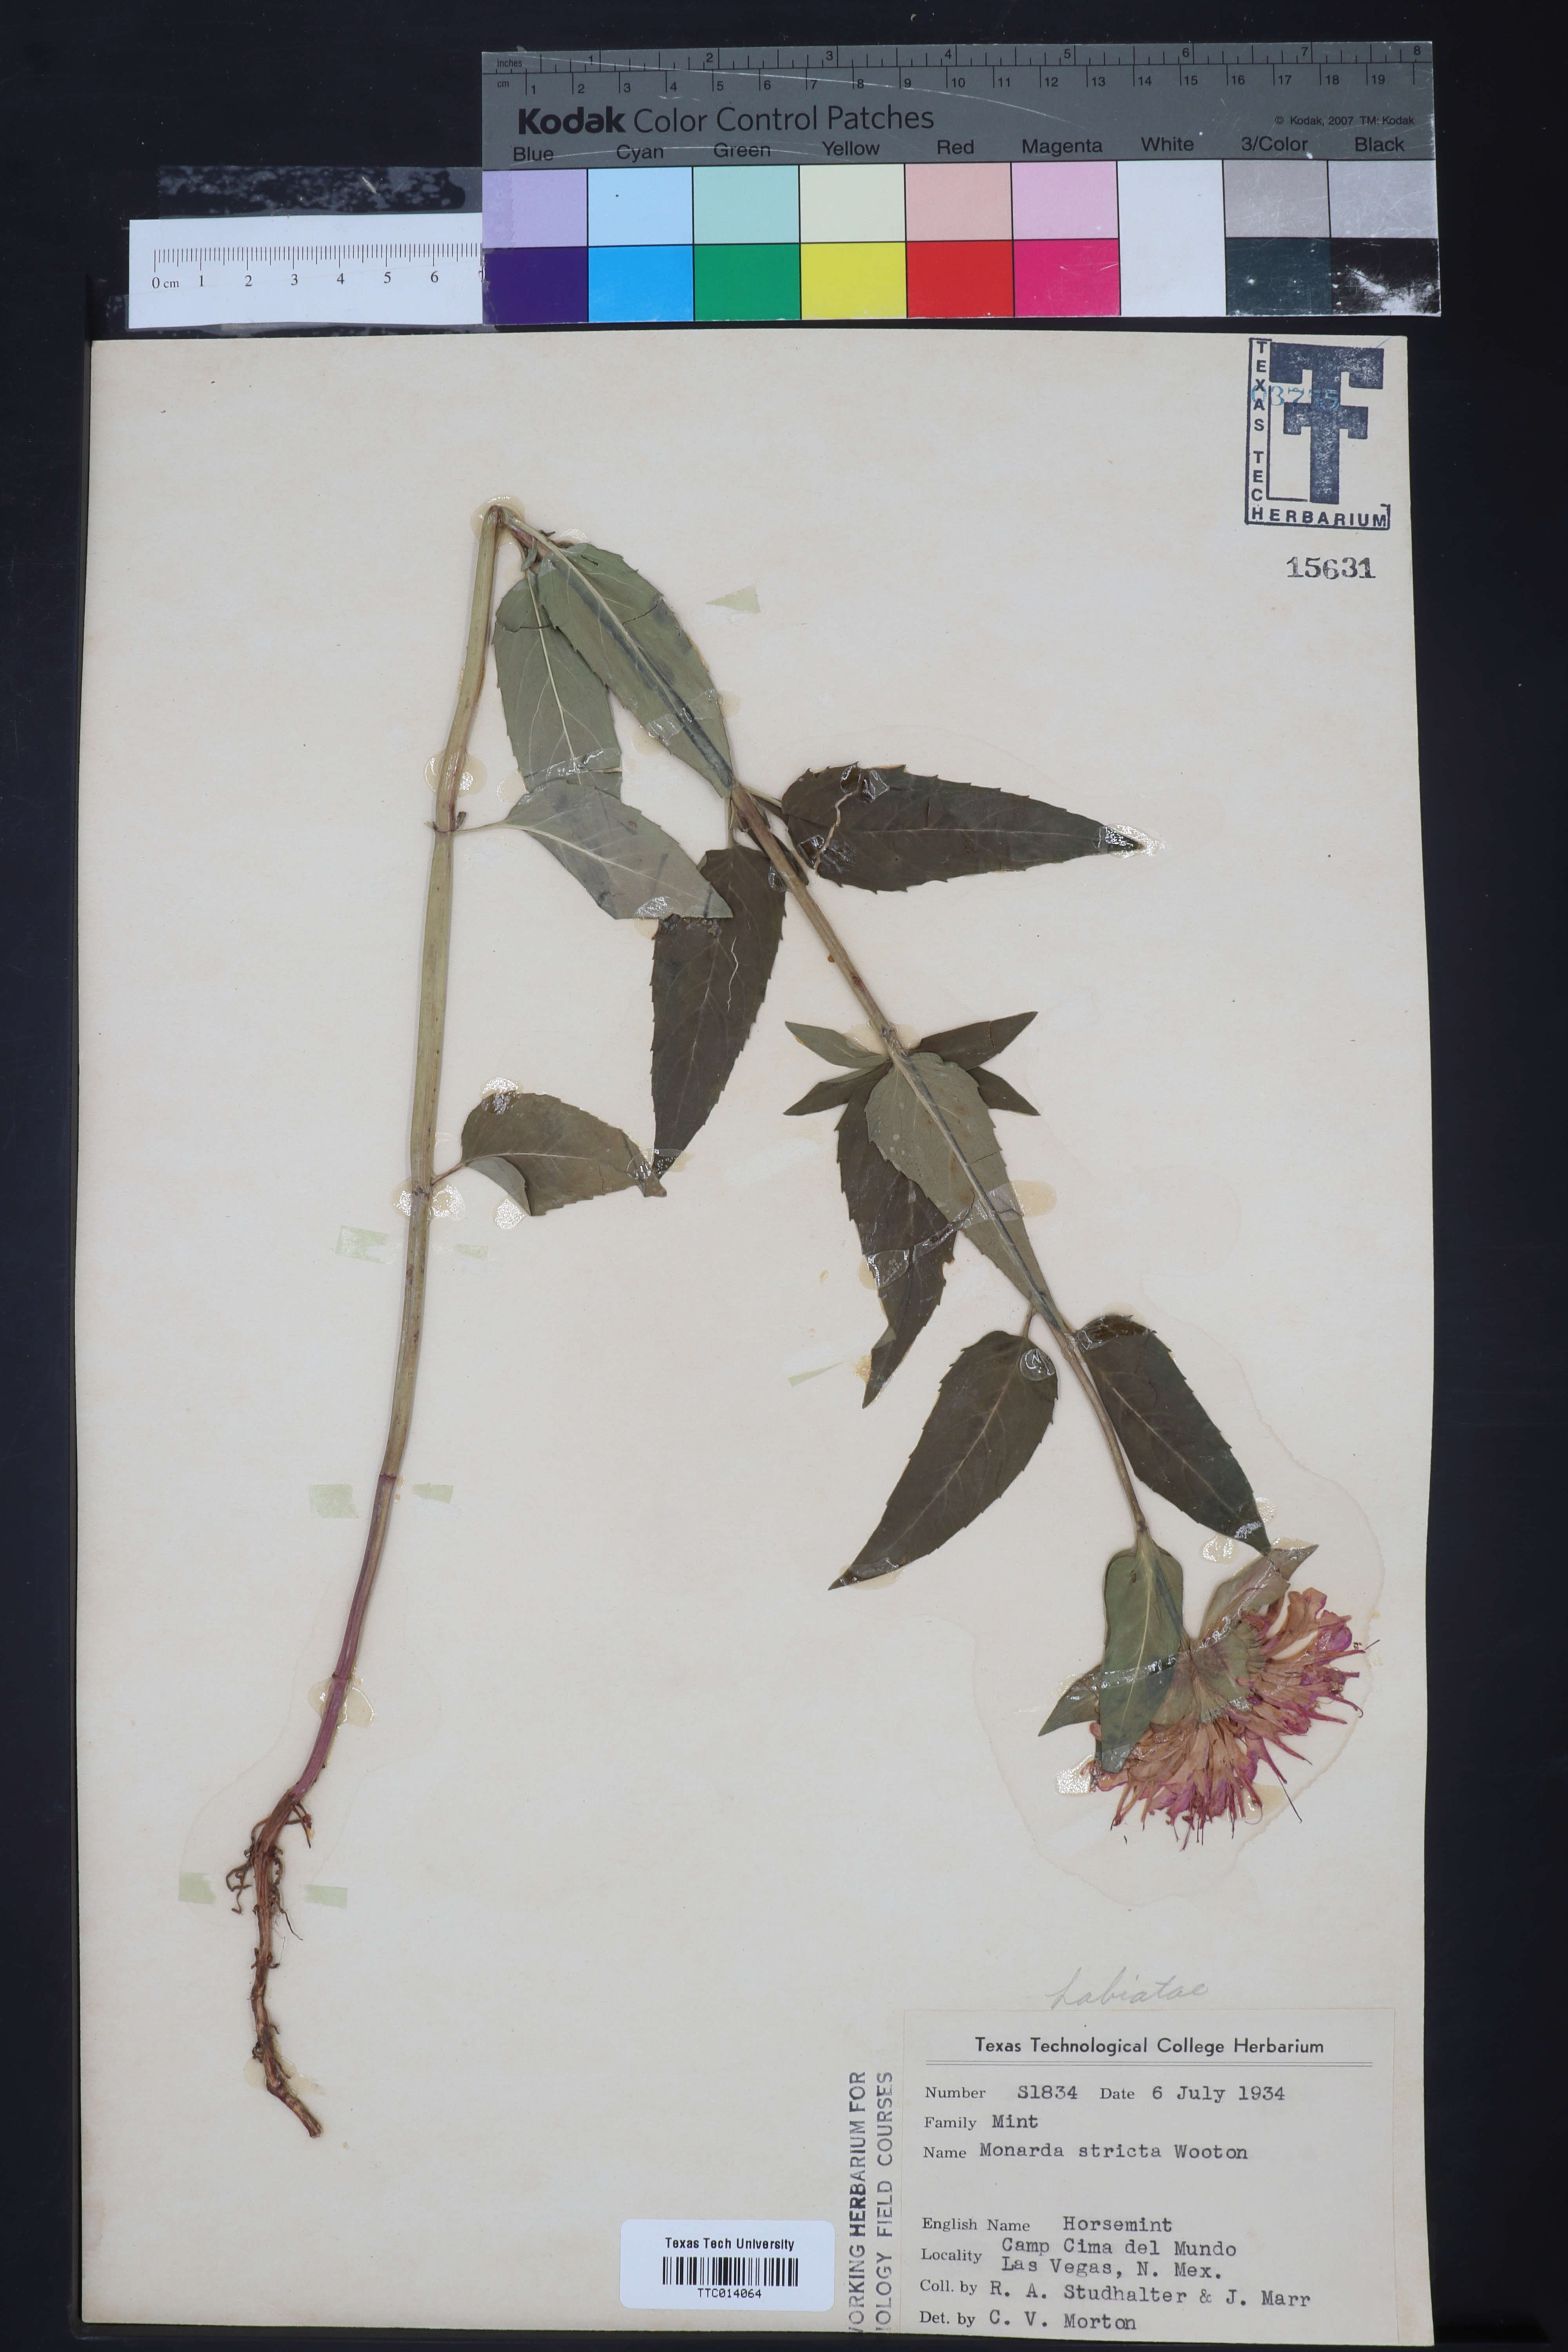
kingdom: Plantae
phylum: Tracheophyta
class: Magnoliopsida
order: Lamiales
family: Lamiaceae
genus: Monarda
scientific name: Monarda fistulosa
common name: Purple beebalm
